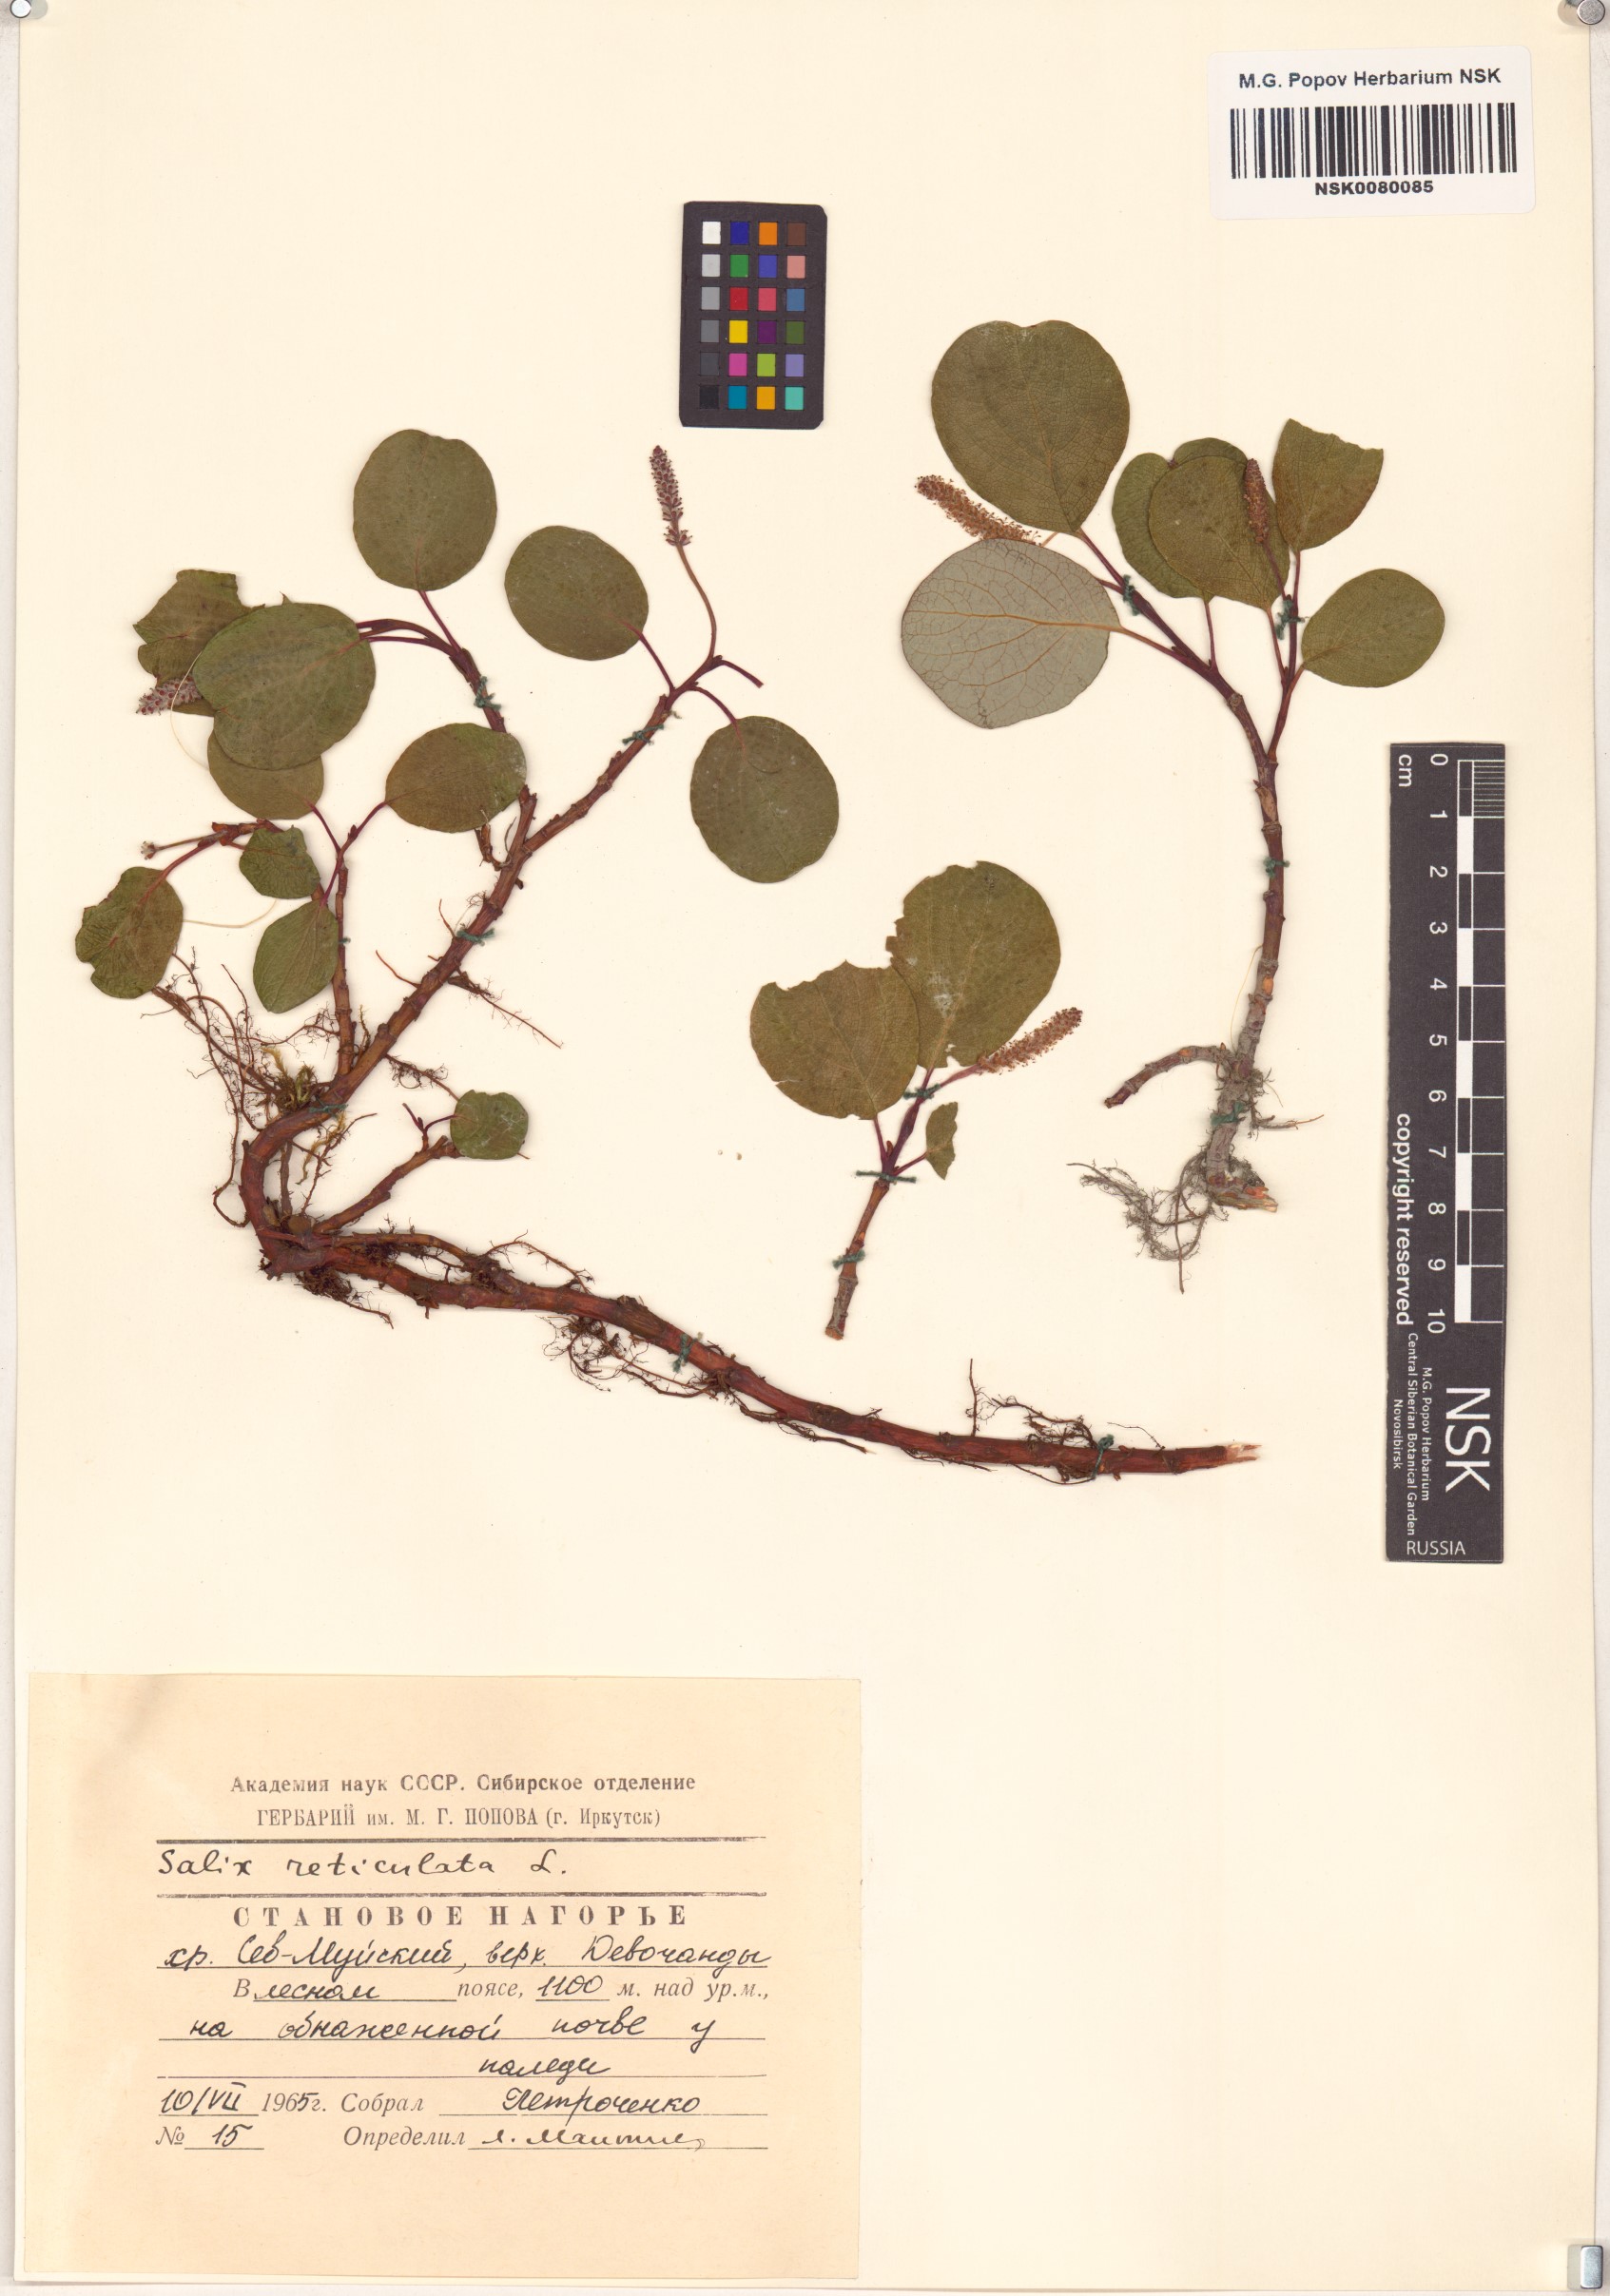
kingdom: Plantae
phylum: Tracheophyta
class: Magnoliopsida
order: Malpighiales
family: Salicaceae
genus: Salix
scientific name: Salix reticulata
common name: Net-leaved willow
